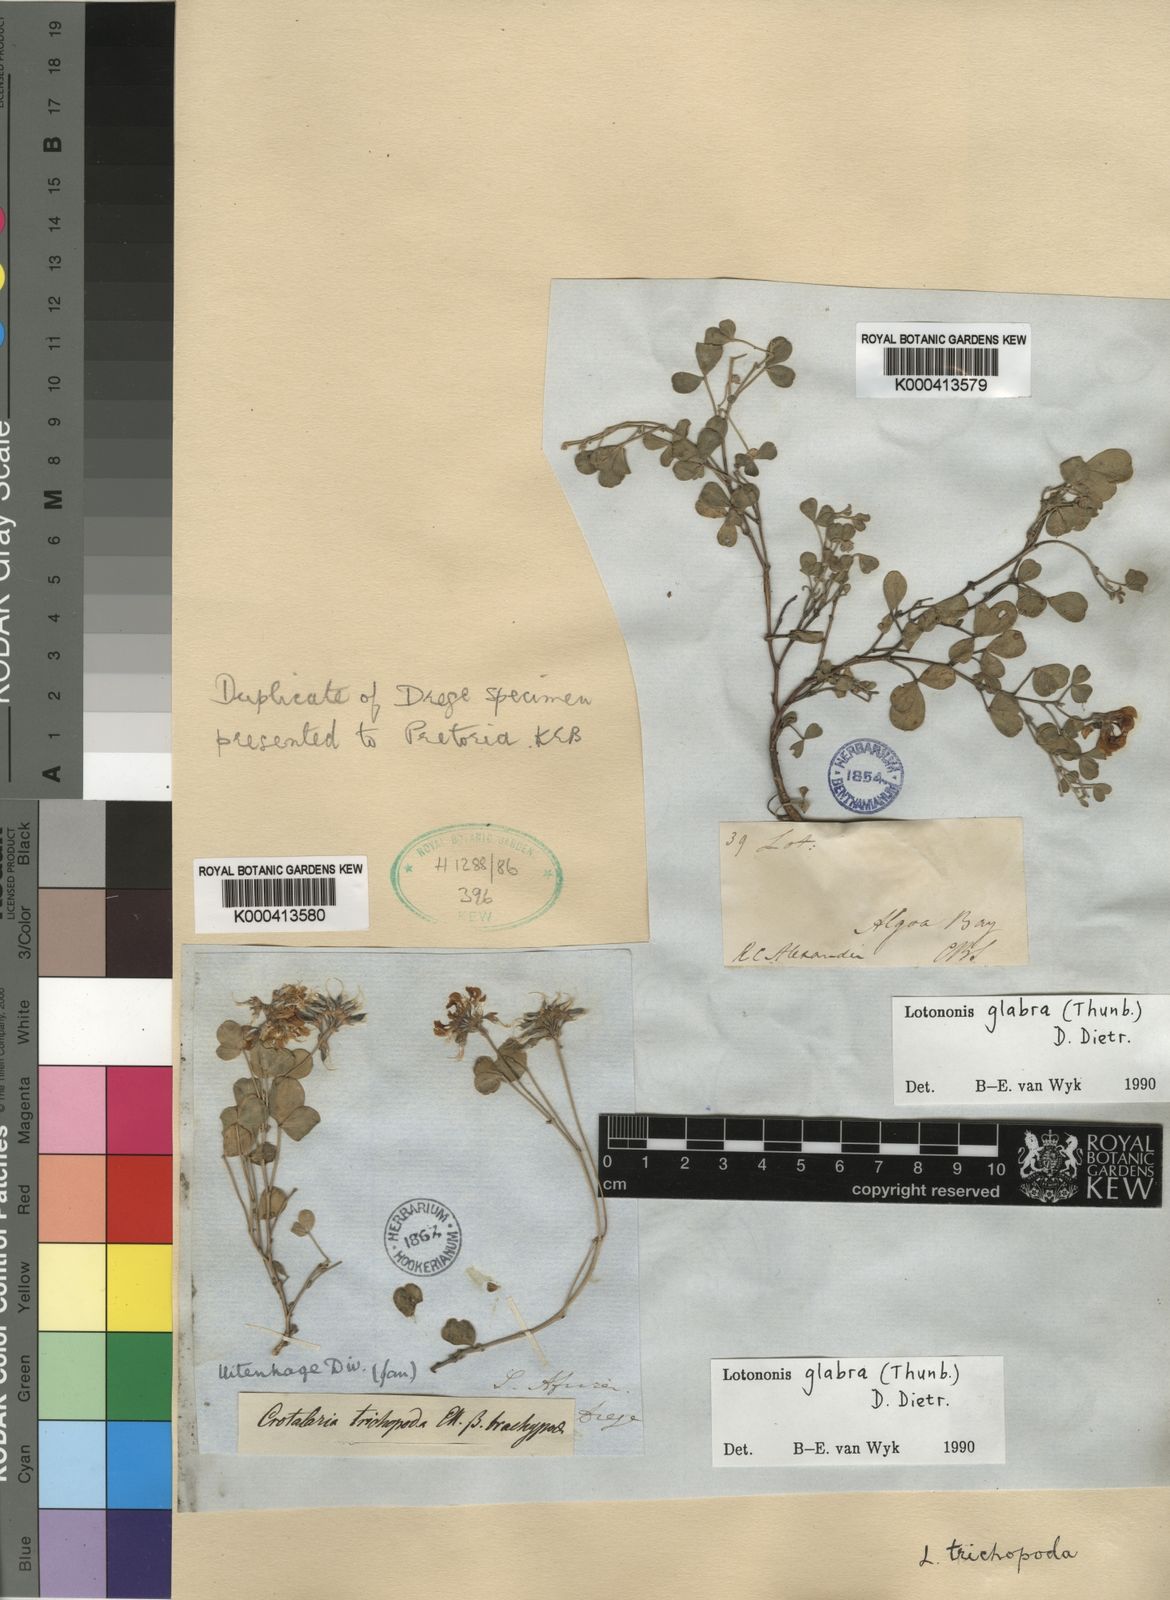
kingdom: Plantae
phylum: Tracheophyta
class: Magnoliopsida
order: Fabales
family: Fabaceae
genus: Lotononis
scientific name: Lotononis glabra
